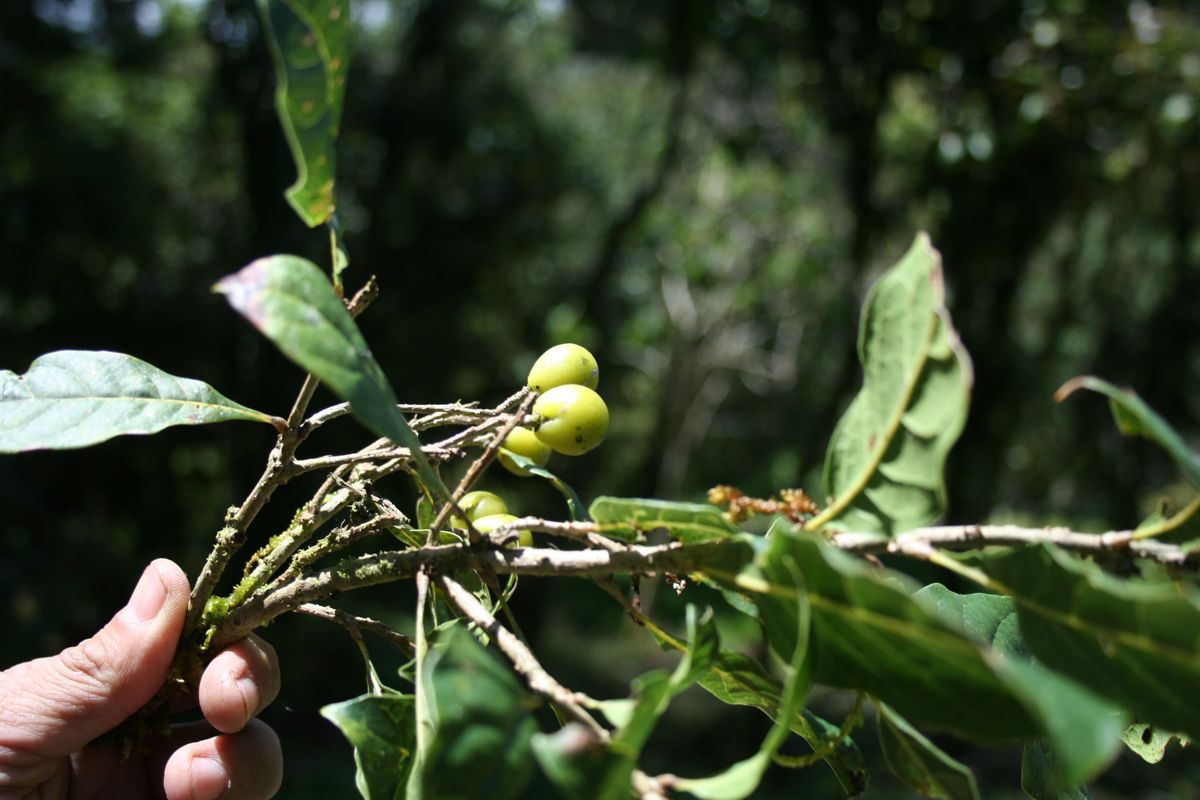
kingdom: Plantae
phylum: Tracheophyta
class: Magnoliopsida
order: Proteales
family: Sabiaceae
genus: Meliosma
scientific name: Meliosma dentata
